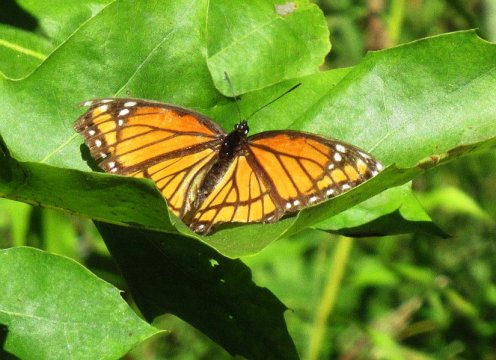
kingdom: Animalia
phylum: Arthropoda
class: Insecta
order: Lepidoptera
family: Nymphalidae
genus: Limenitis
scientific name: Limenitis archippus
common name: Viceroy
